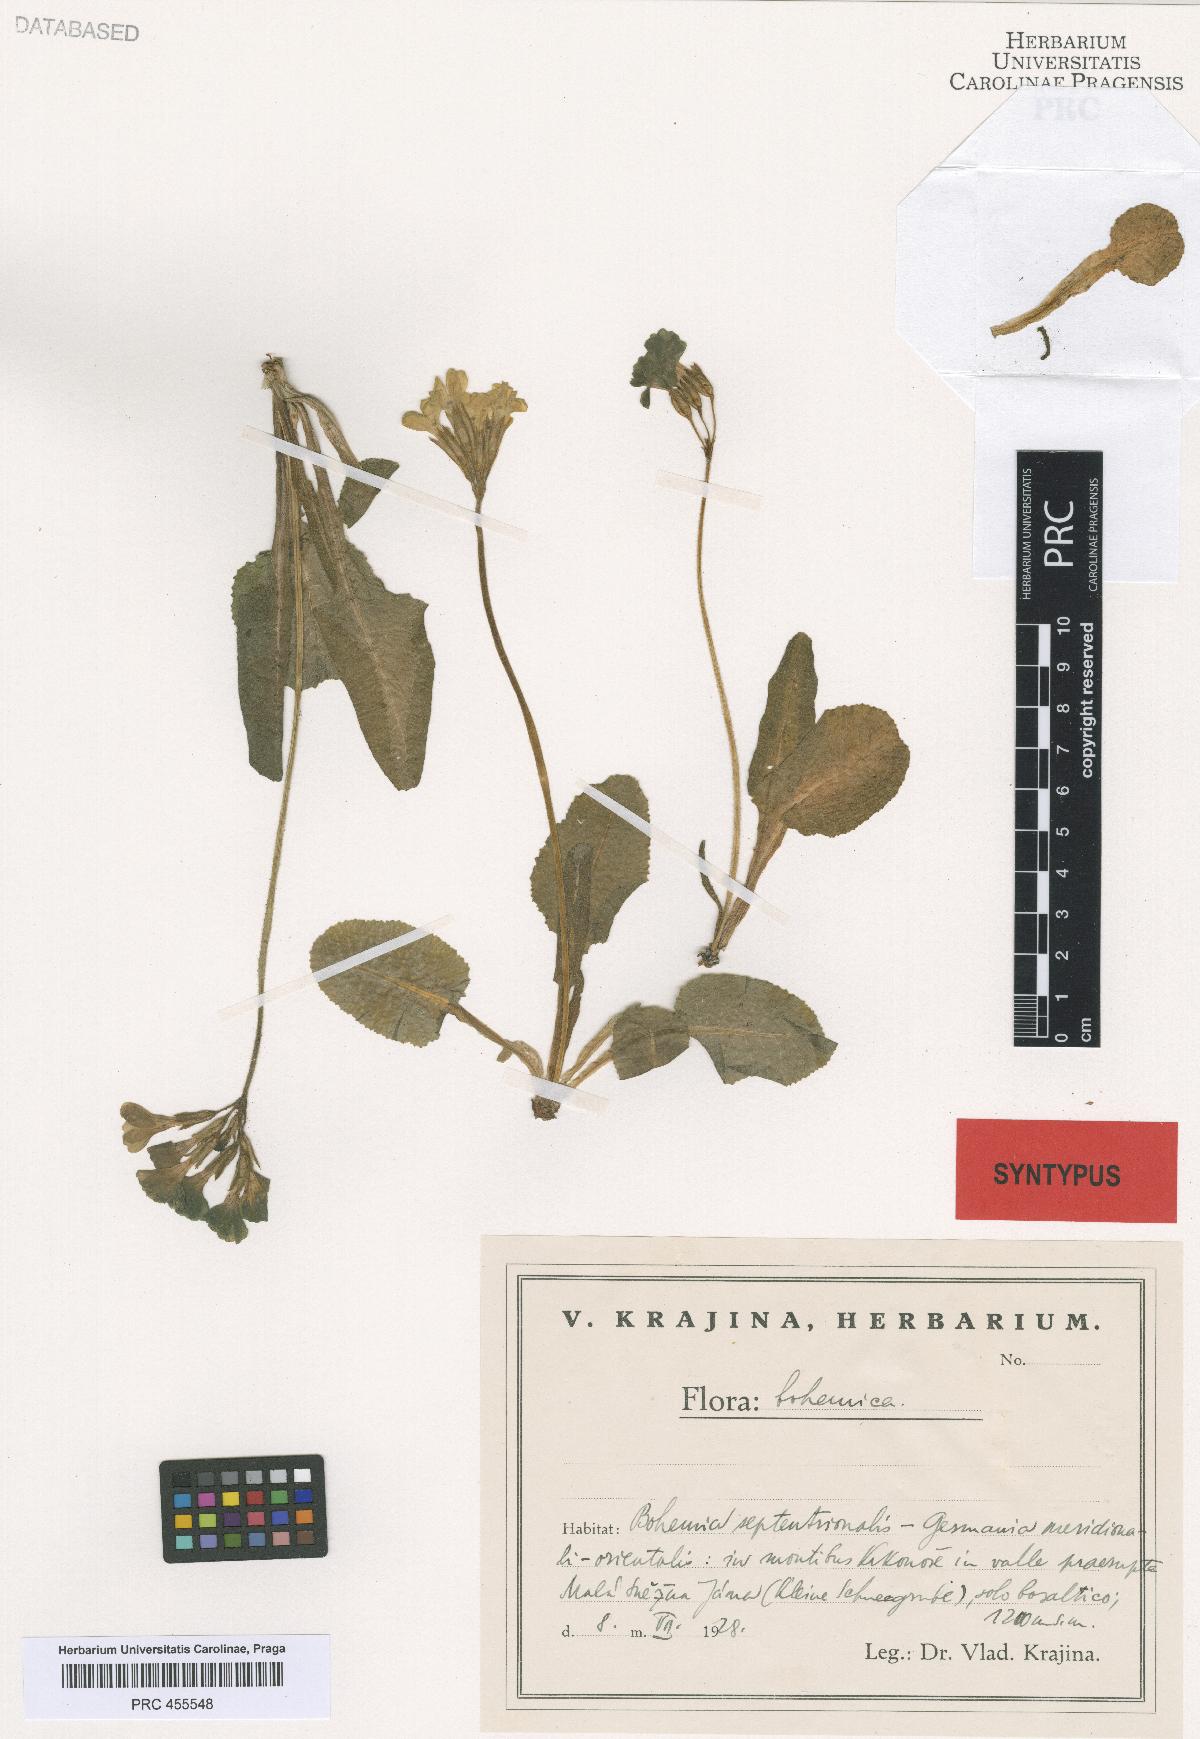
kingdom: Plantae
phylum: Tracheophyta
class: Magnoliopsida
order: Ericales
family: Primulaceae
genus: Primula
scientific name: Primula elatior
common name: Oxlip
